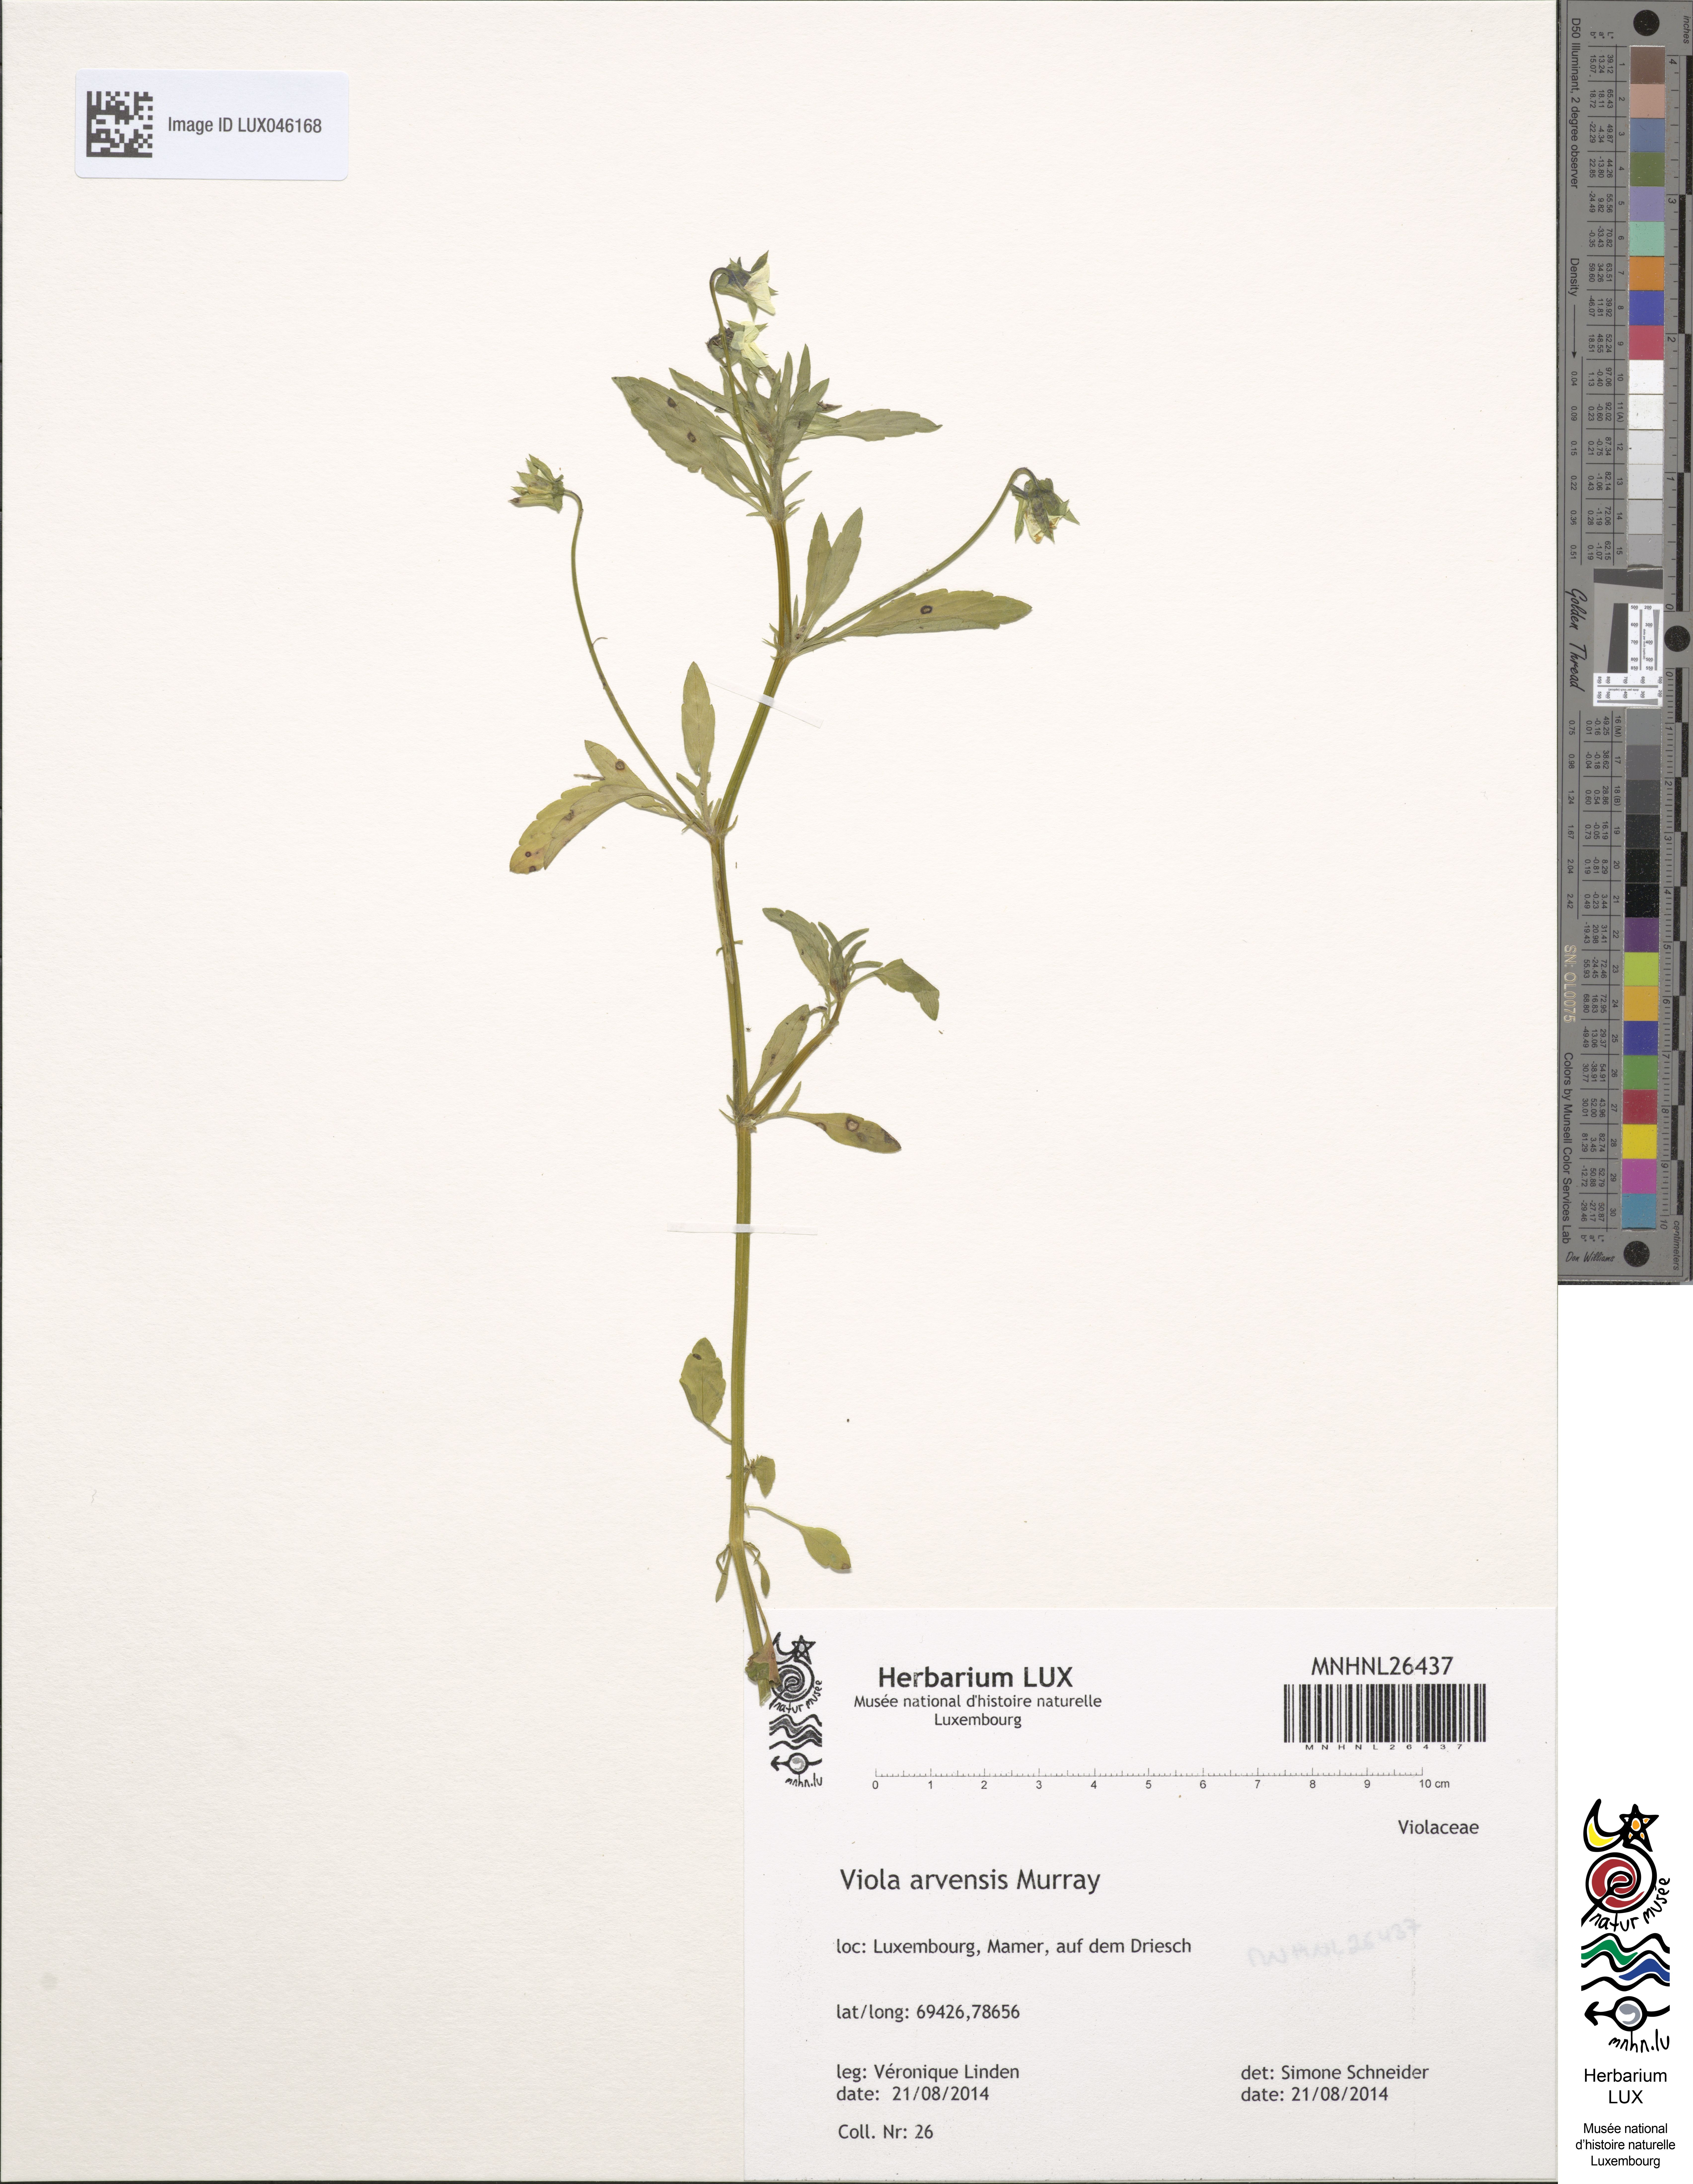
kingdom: Plantae
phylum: Tracheophyta
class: Magnoliopsida
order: Malpighiales
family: Violaceae
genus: Viola
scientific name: Viola arvensis
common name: Field pansy
